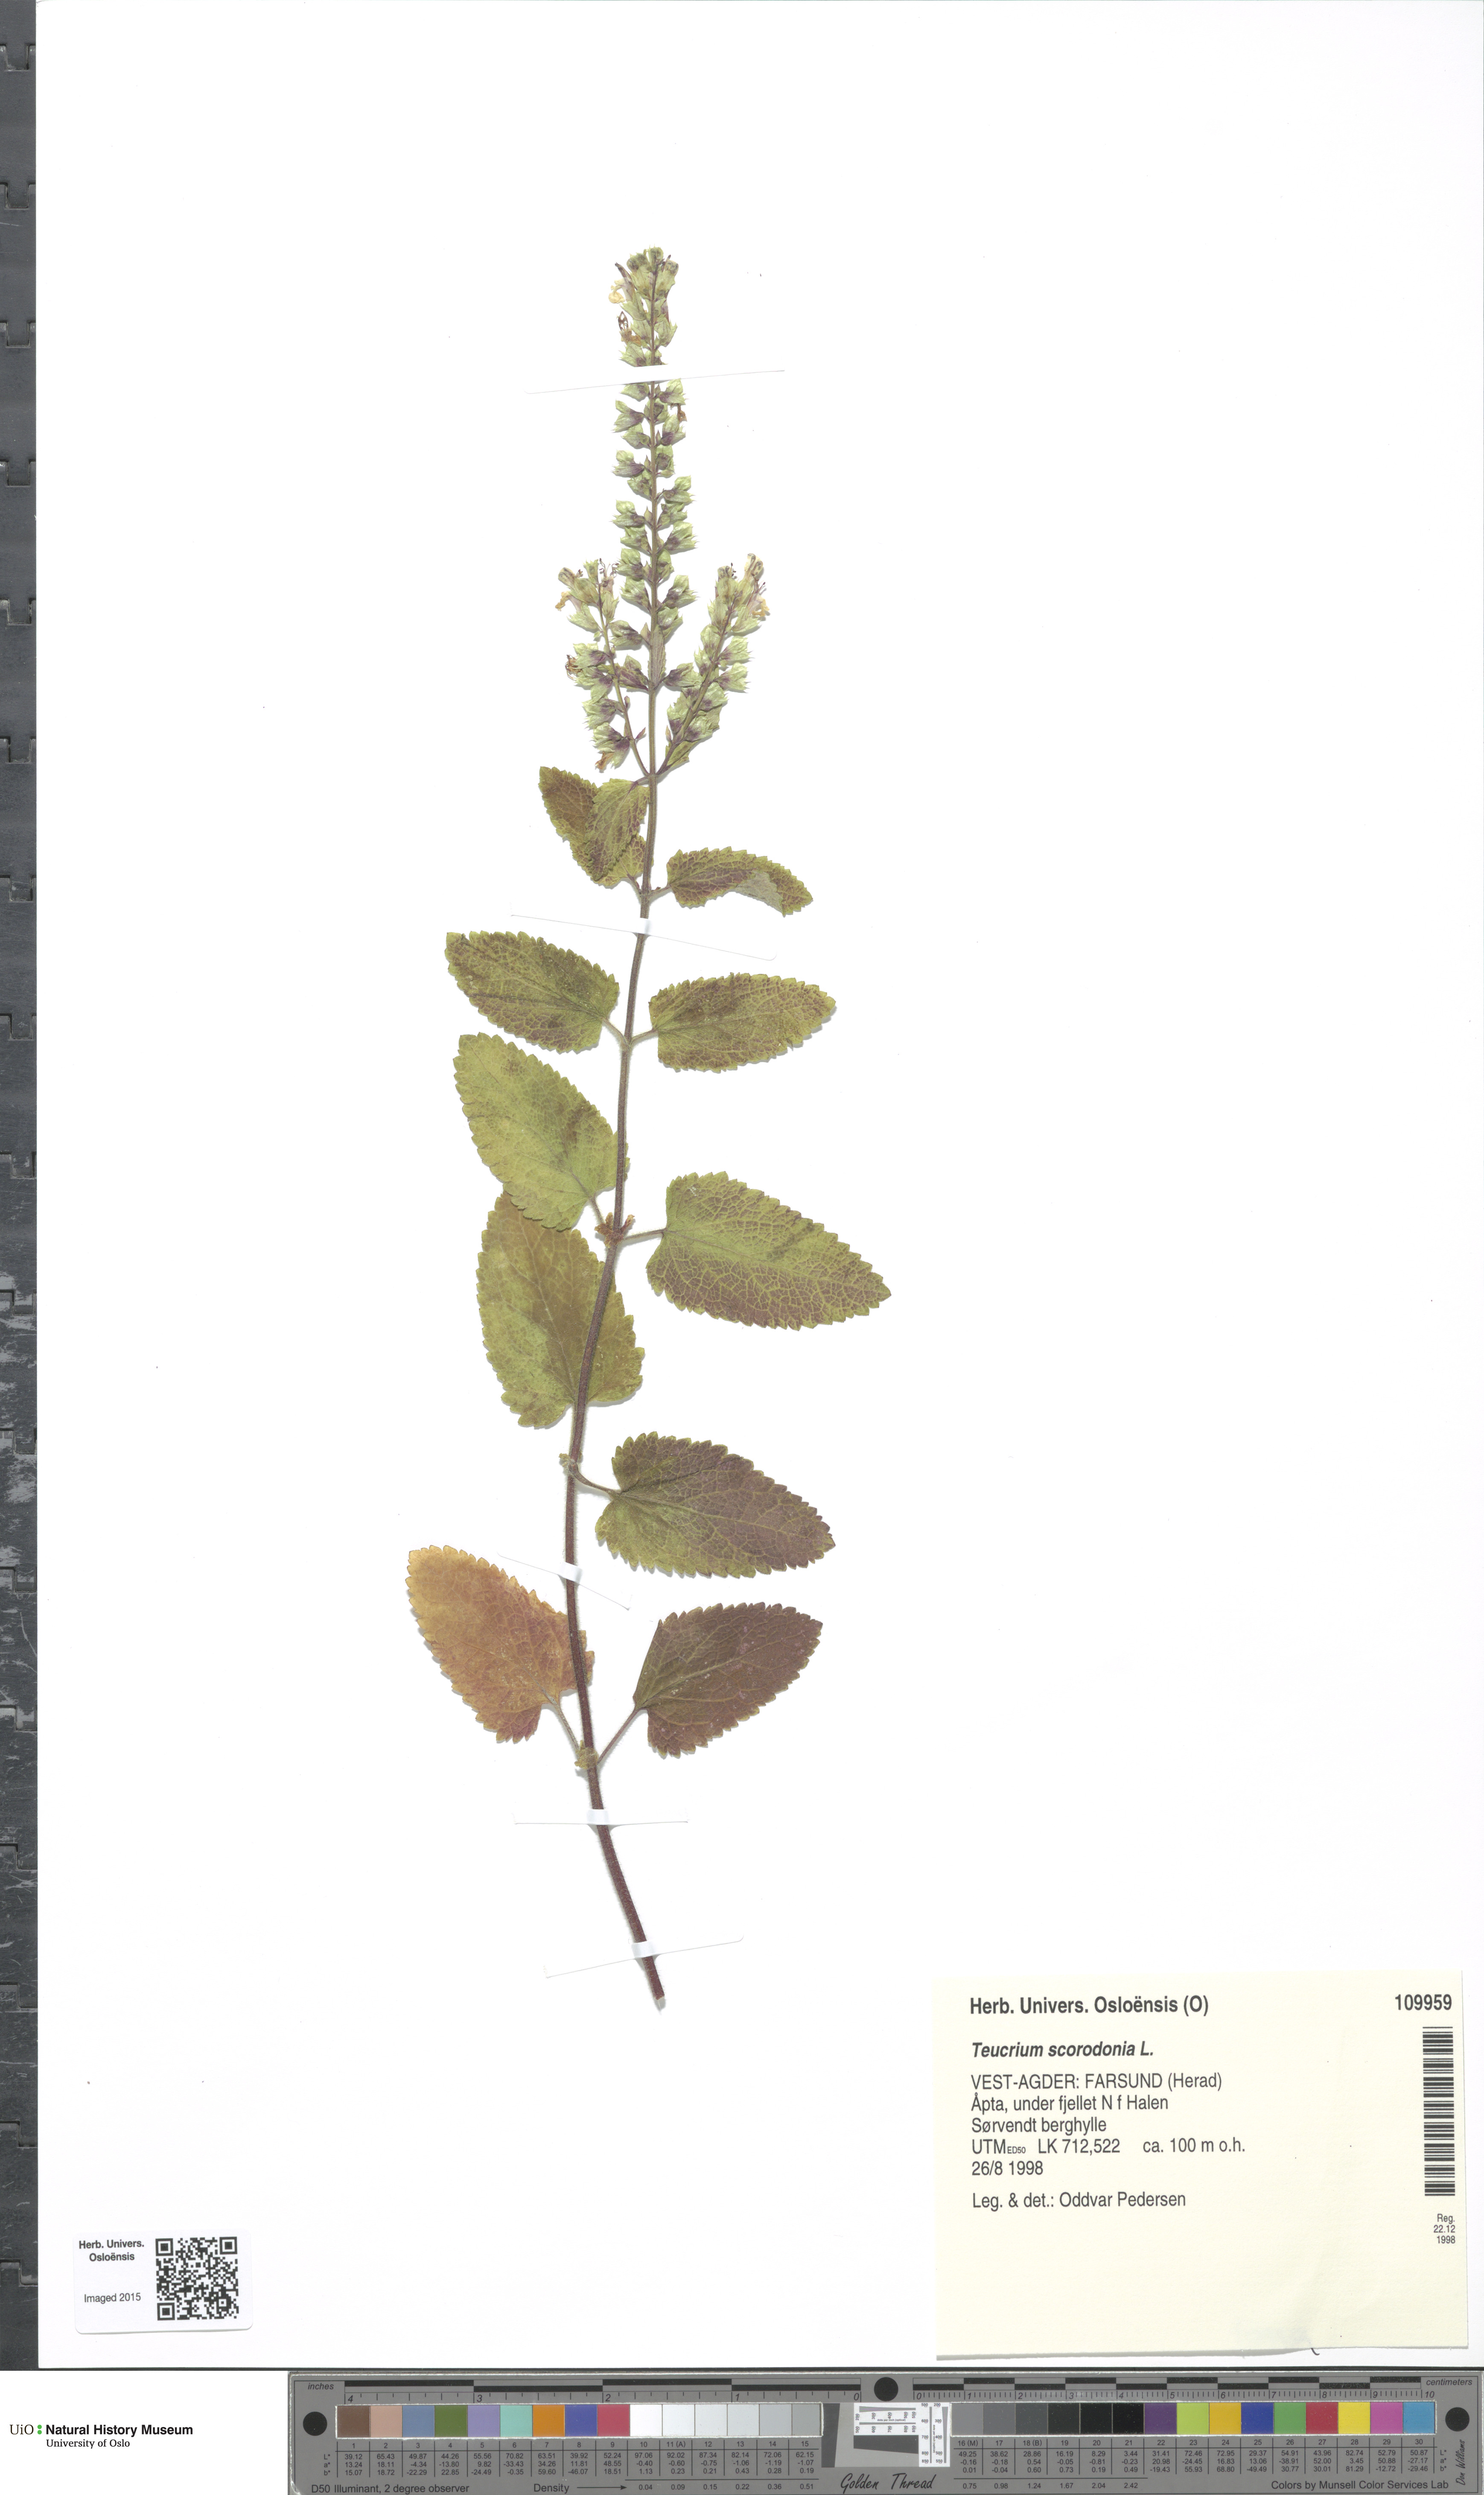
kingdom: Plantae
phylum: Tracheophyta
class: Magnoliopsida
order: Lamiales
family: Lamiaceae
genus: Teucrium
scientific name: Teucrium scorodonia
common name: Woodland germander
